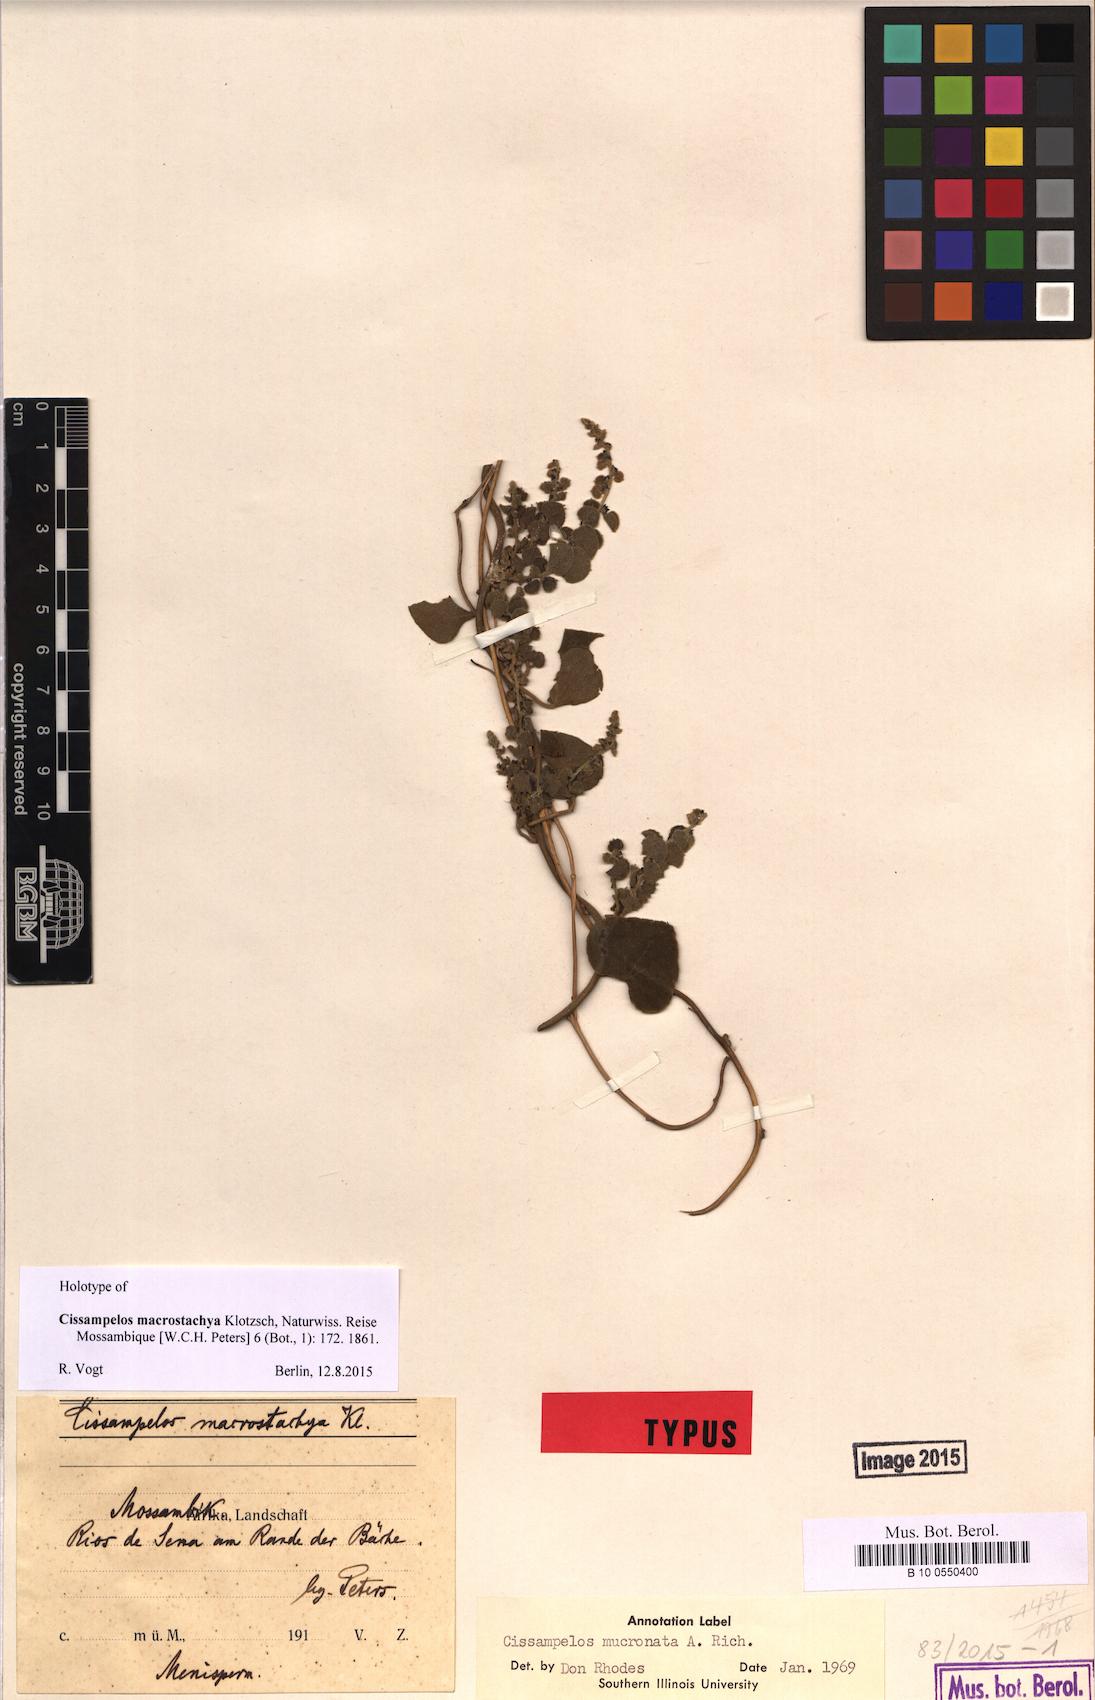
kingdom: Plantae
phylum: Tracheophyta
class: Magnoliopsida
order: Ranunculales
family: Menispermaceae
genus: Cissampelos
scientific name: Cissampelos mucronata
